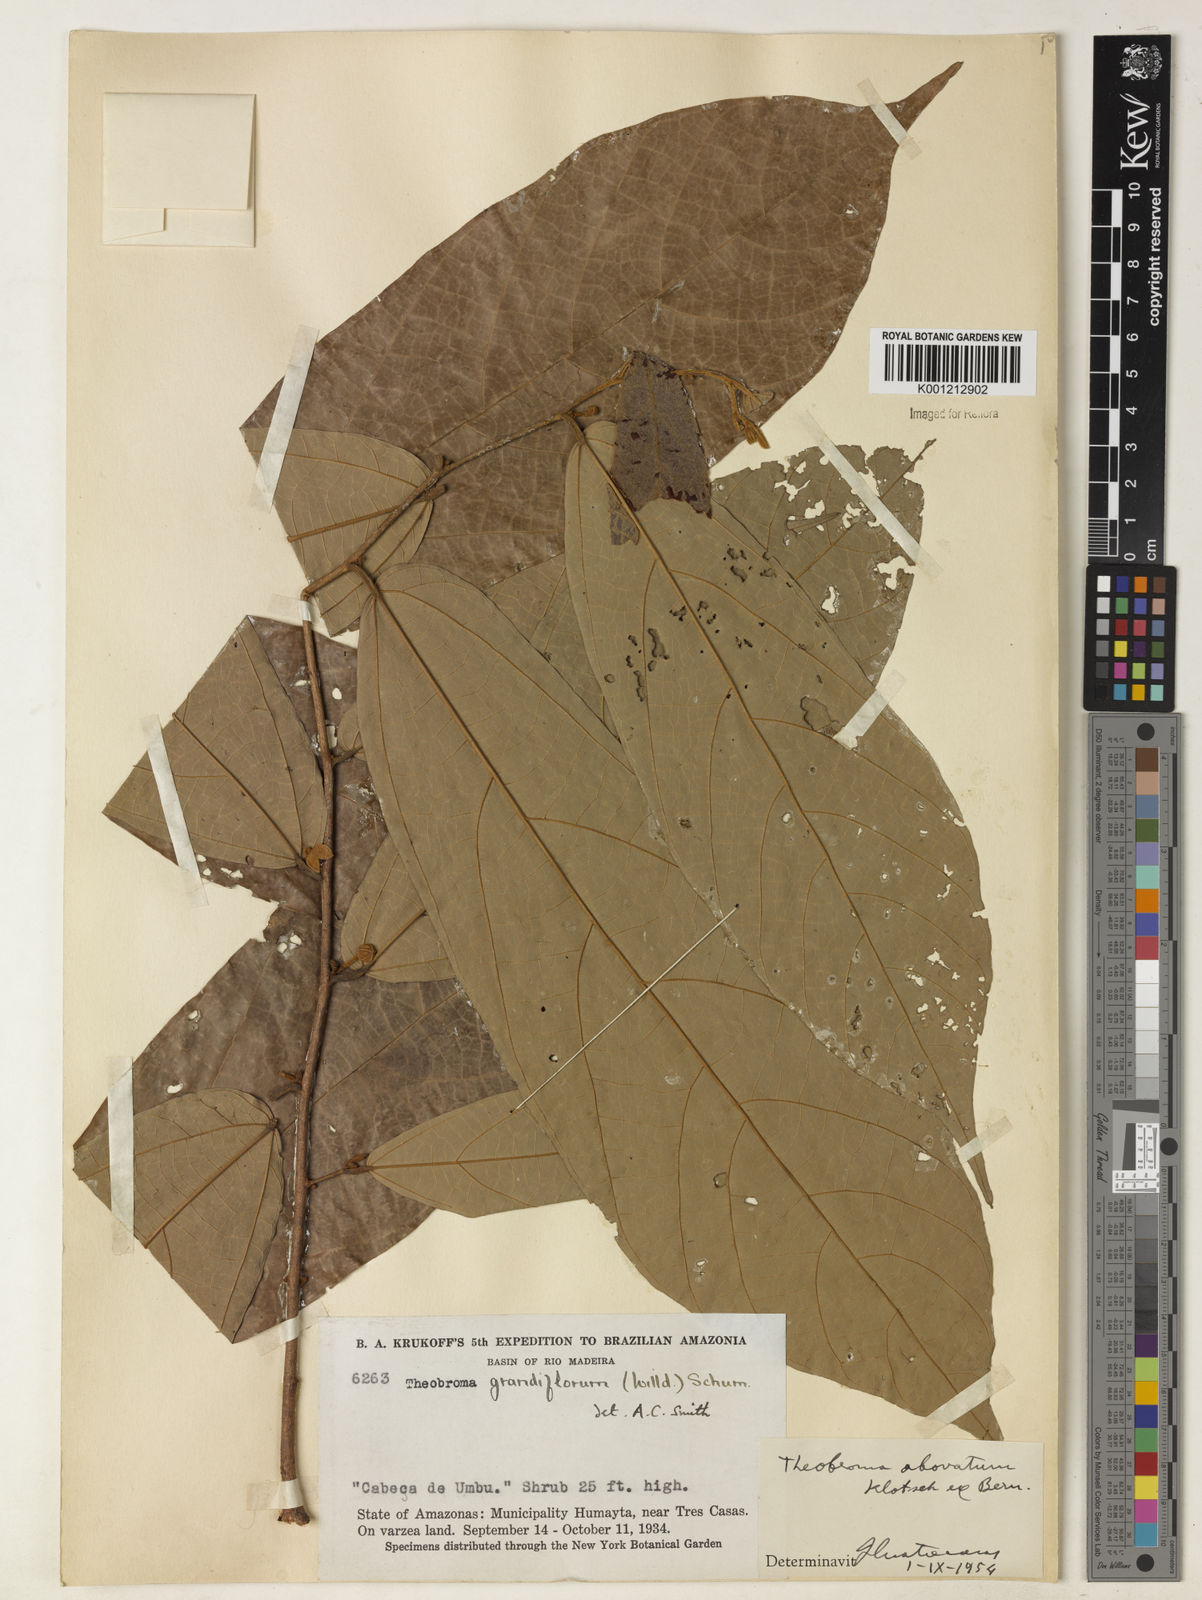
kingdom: Plantae
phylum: Tracheophyta
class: Magnoliopsida
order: Malvales
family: Malvaceae
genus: Theobroma
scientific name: Theobroma obovatum
